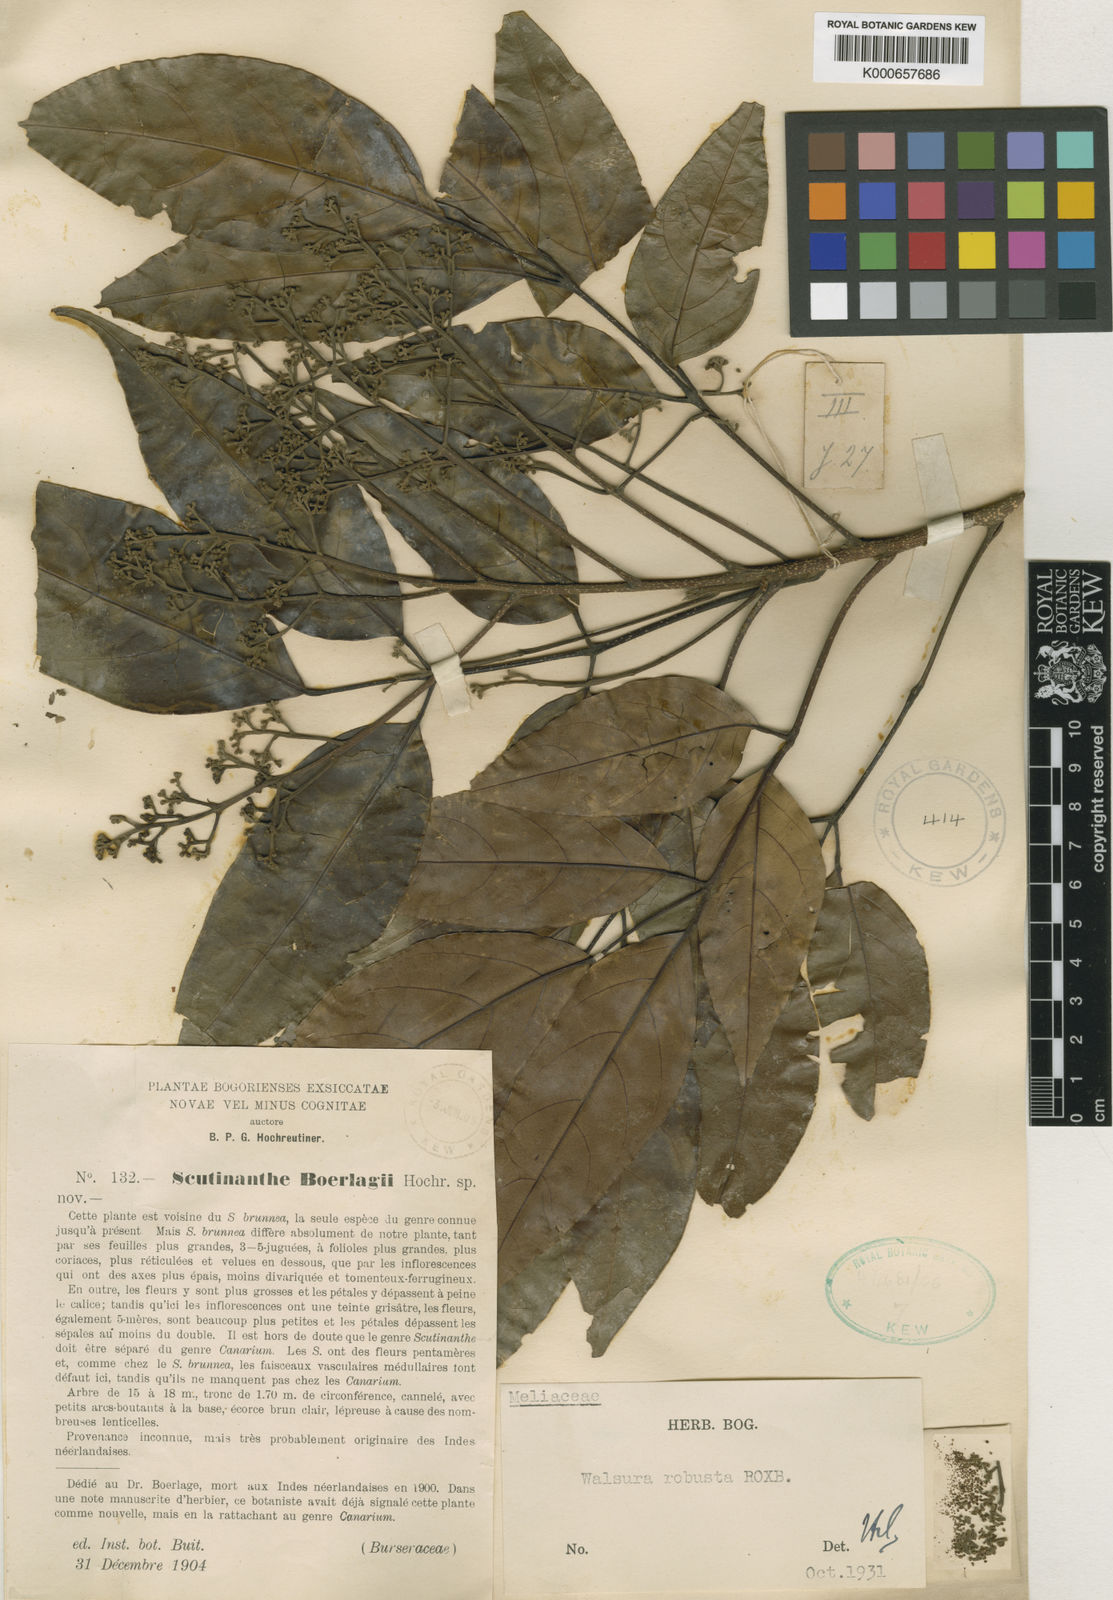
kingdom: Plantae
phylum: Tracheophyta
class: Magnoliopsida
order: Sapindales
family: Meliaceae
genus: Walsura
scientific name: Walsura robusta
